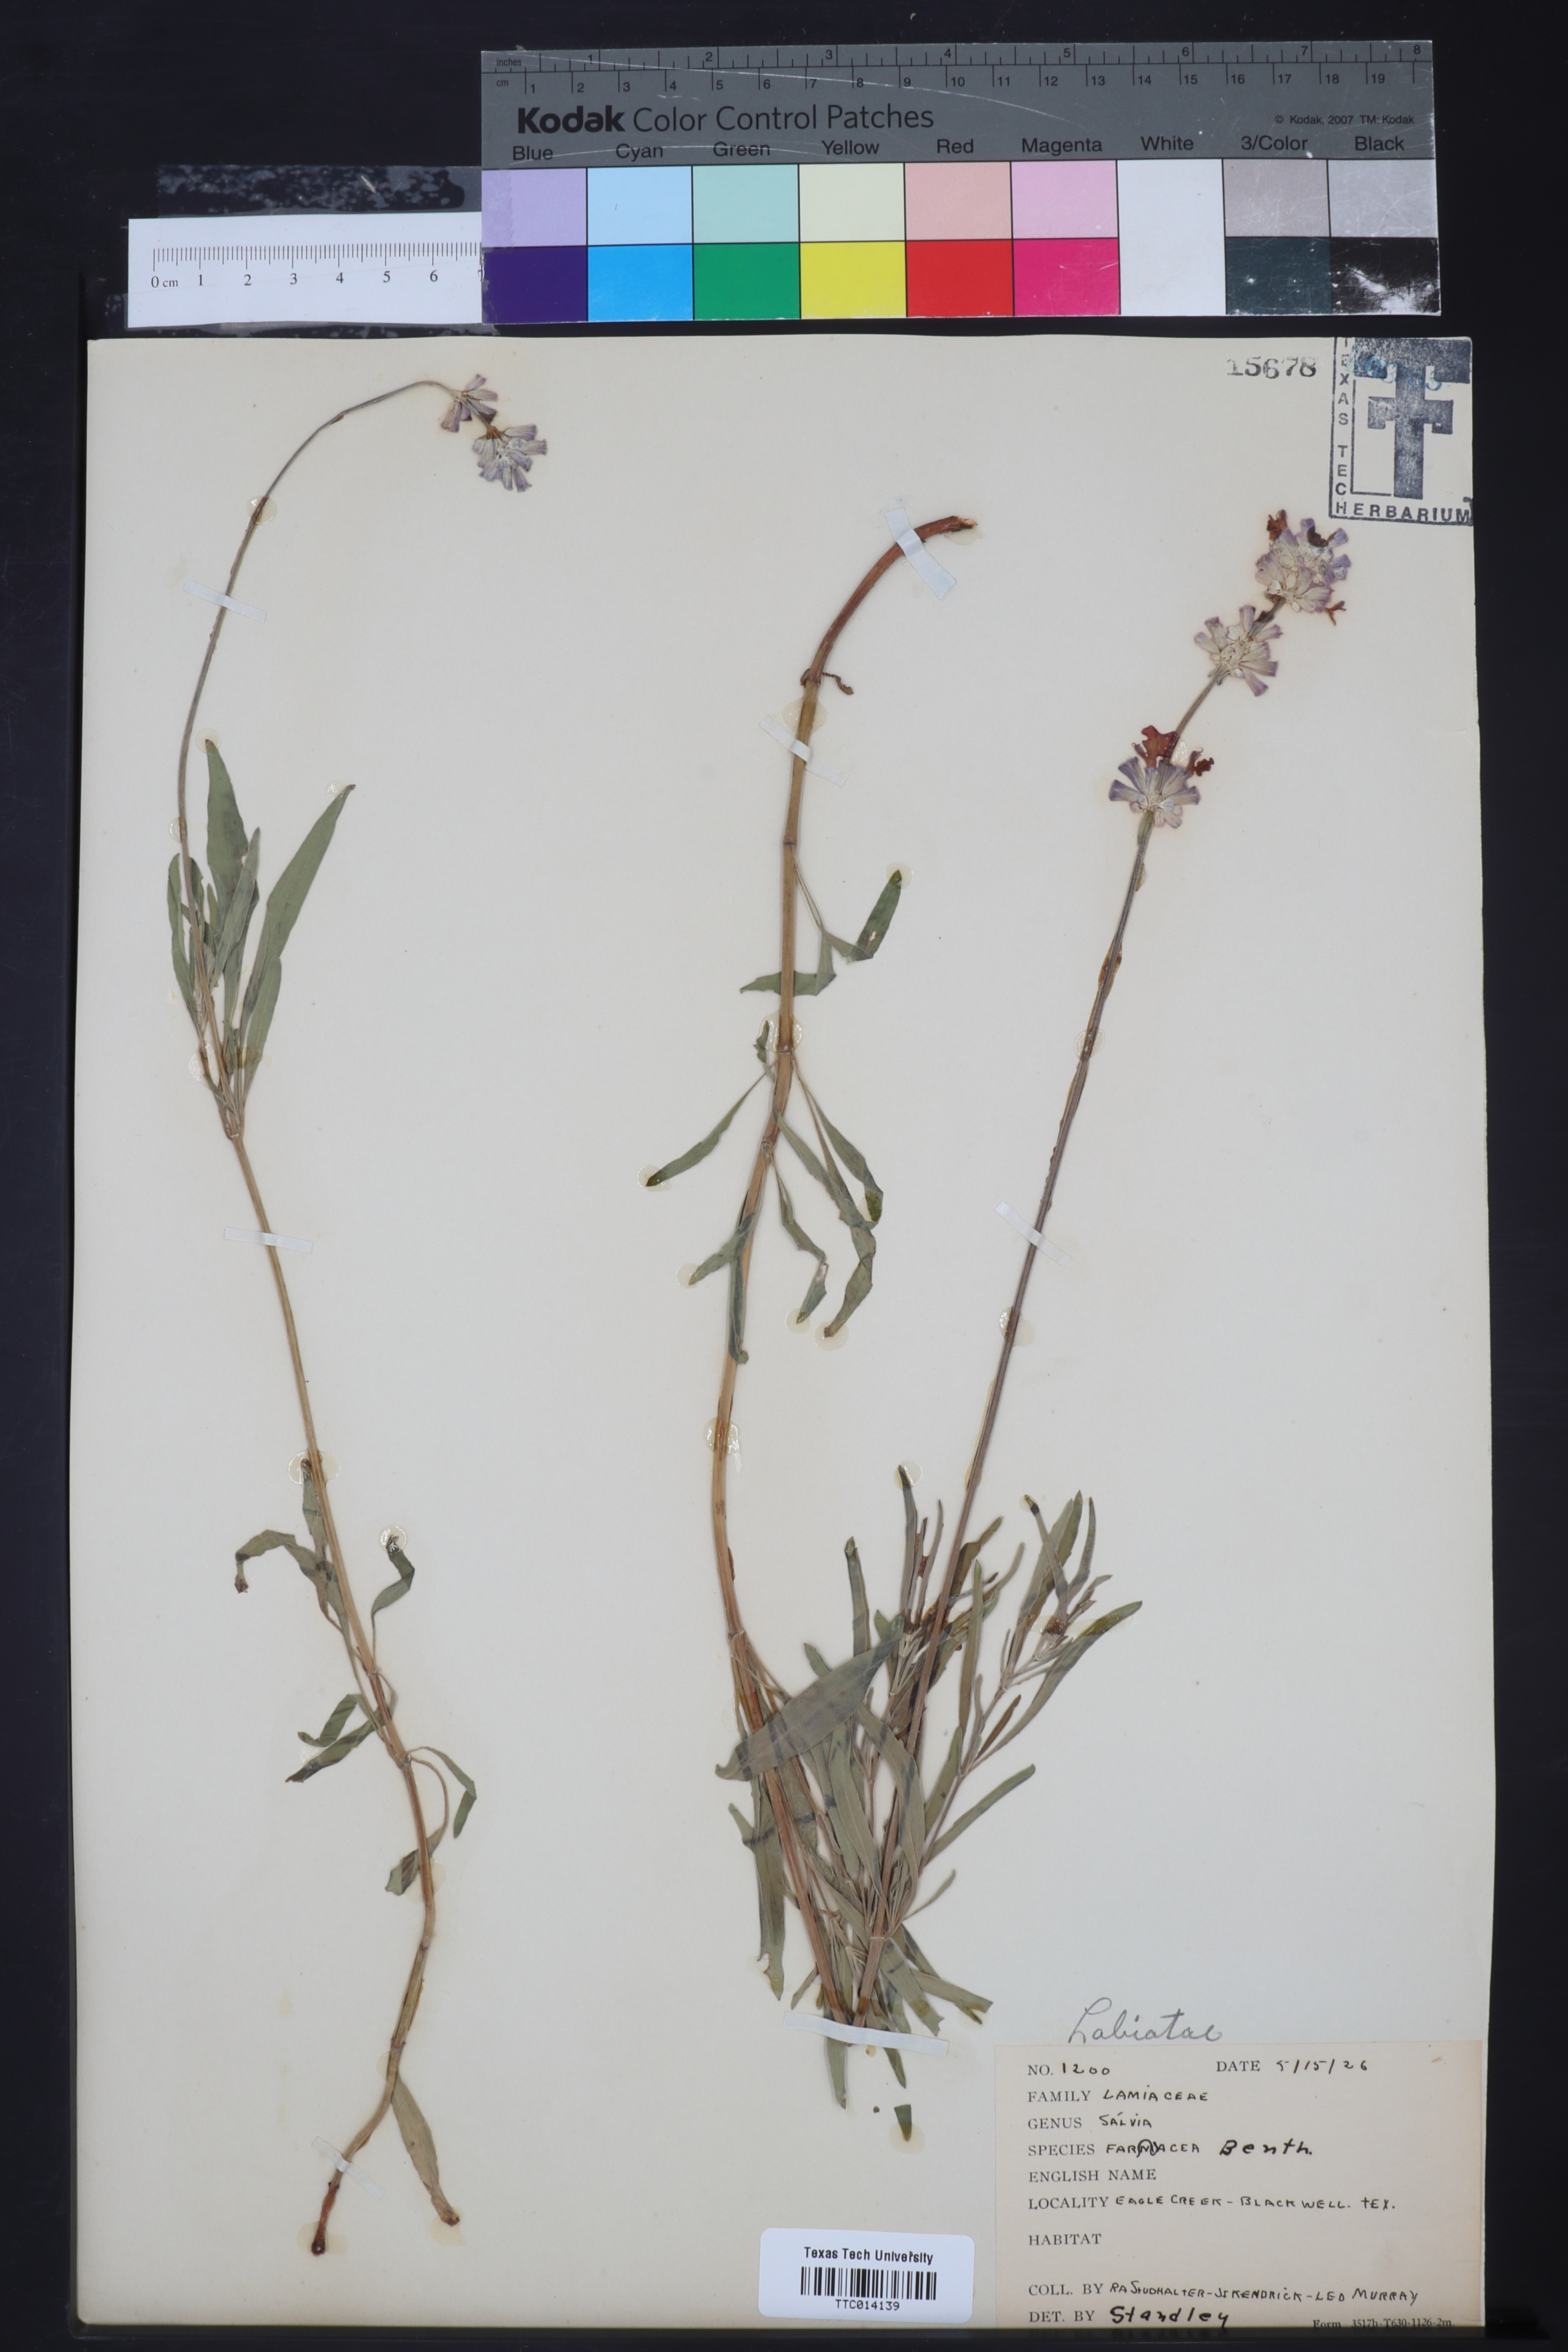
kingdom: Plantae
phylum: Tracheophyta
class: Magnoliopsida
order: Lamiales
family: Lamiaceae
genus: Salvia
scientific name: Salvia farinacea
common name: Mealy sage
